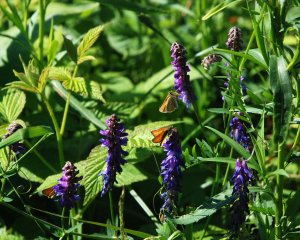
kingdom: Animalia
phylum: Arthropoda
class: Insecta
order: Lepidoptera
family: Hesperiidae
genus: Thymelicus
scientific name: Thymelicus lineola
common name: European Skipper
